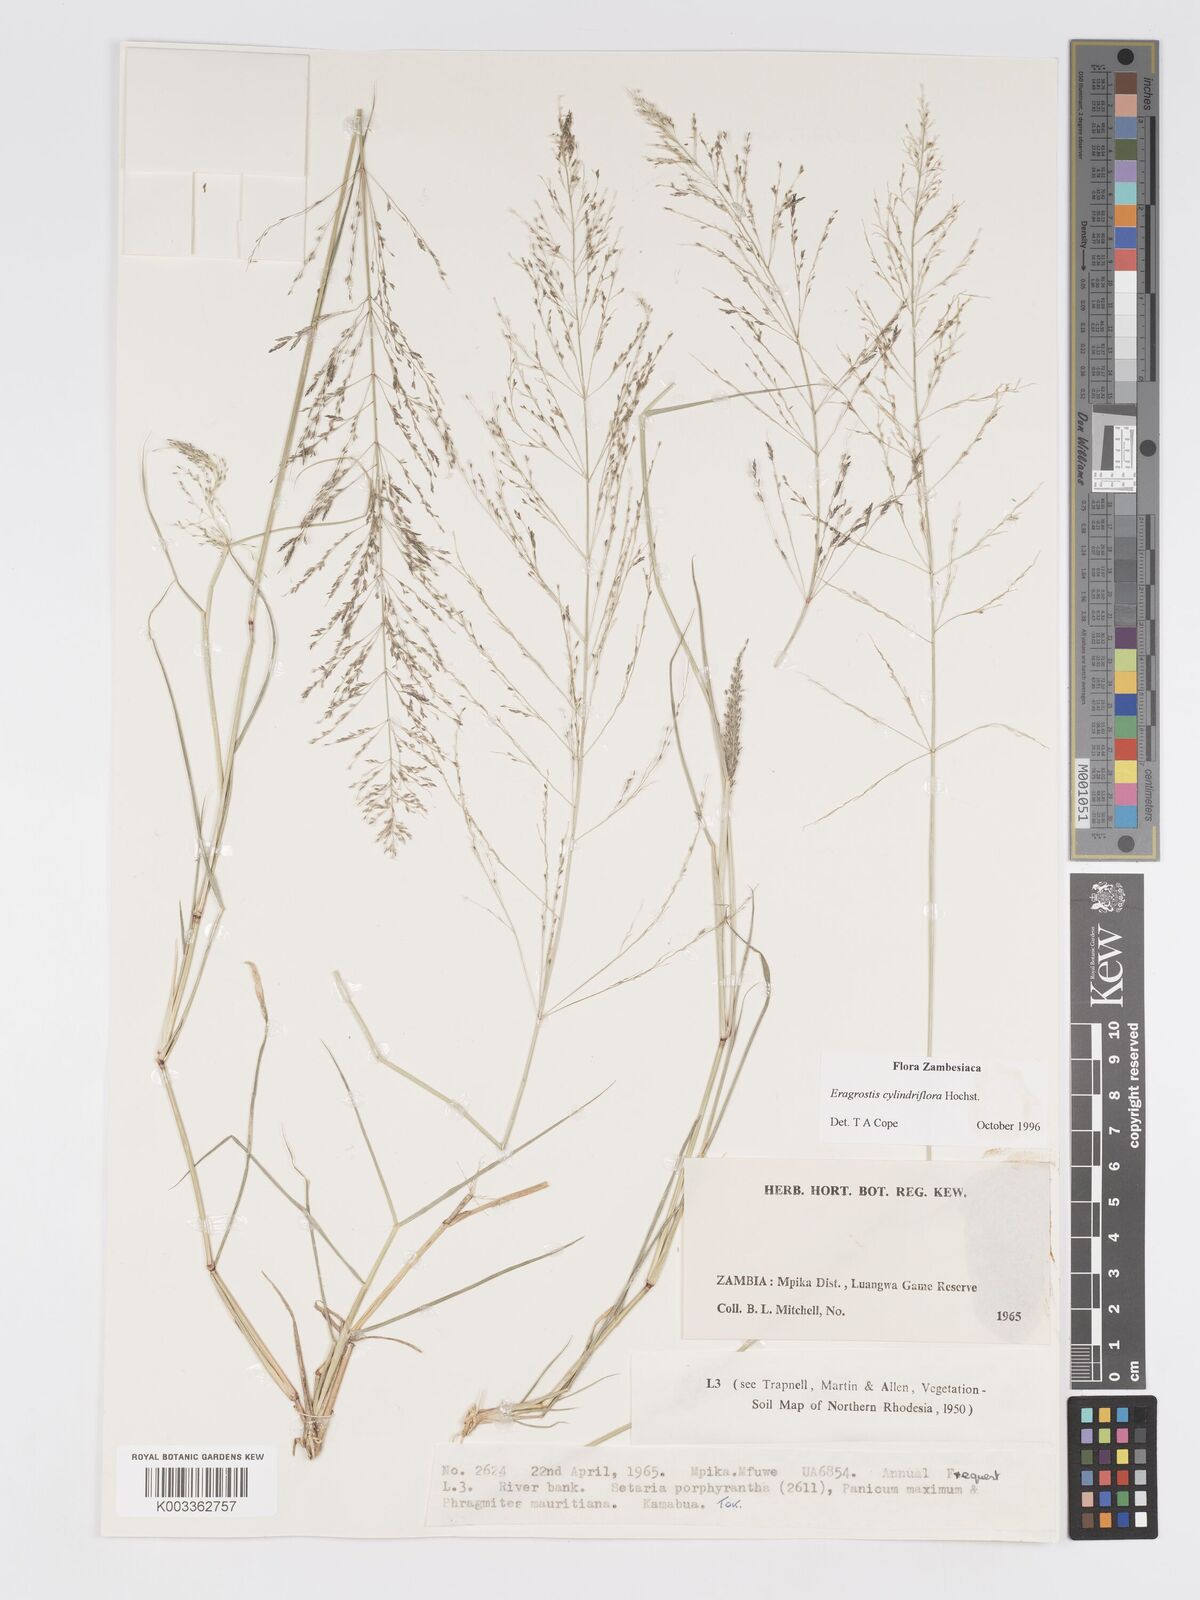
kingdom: Plantae
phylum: Tracheophyta
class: Liliopsida
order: Poales
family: Poaceae
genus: Eragrostis
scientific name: Eragrostis cylindriflora
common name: Cylinderflower lovegrass
